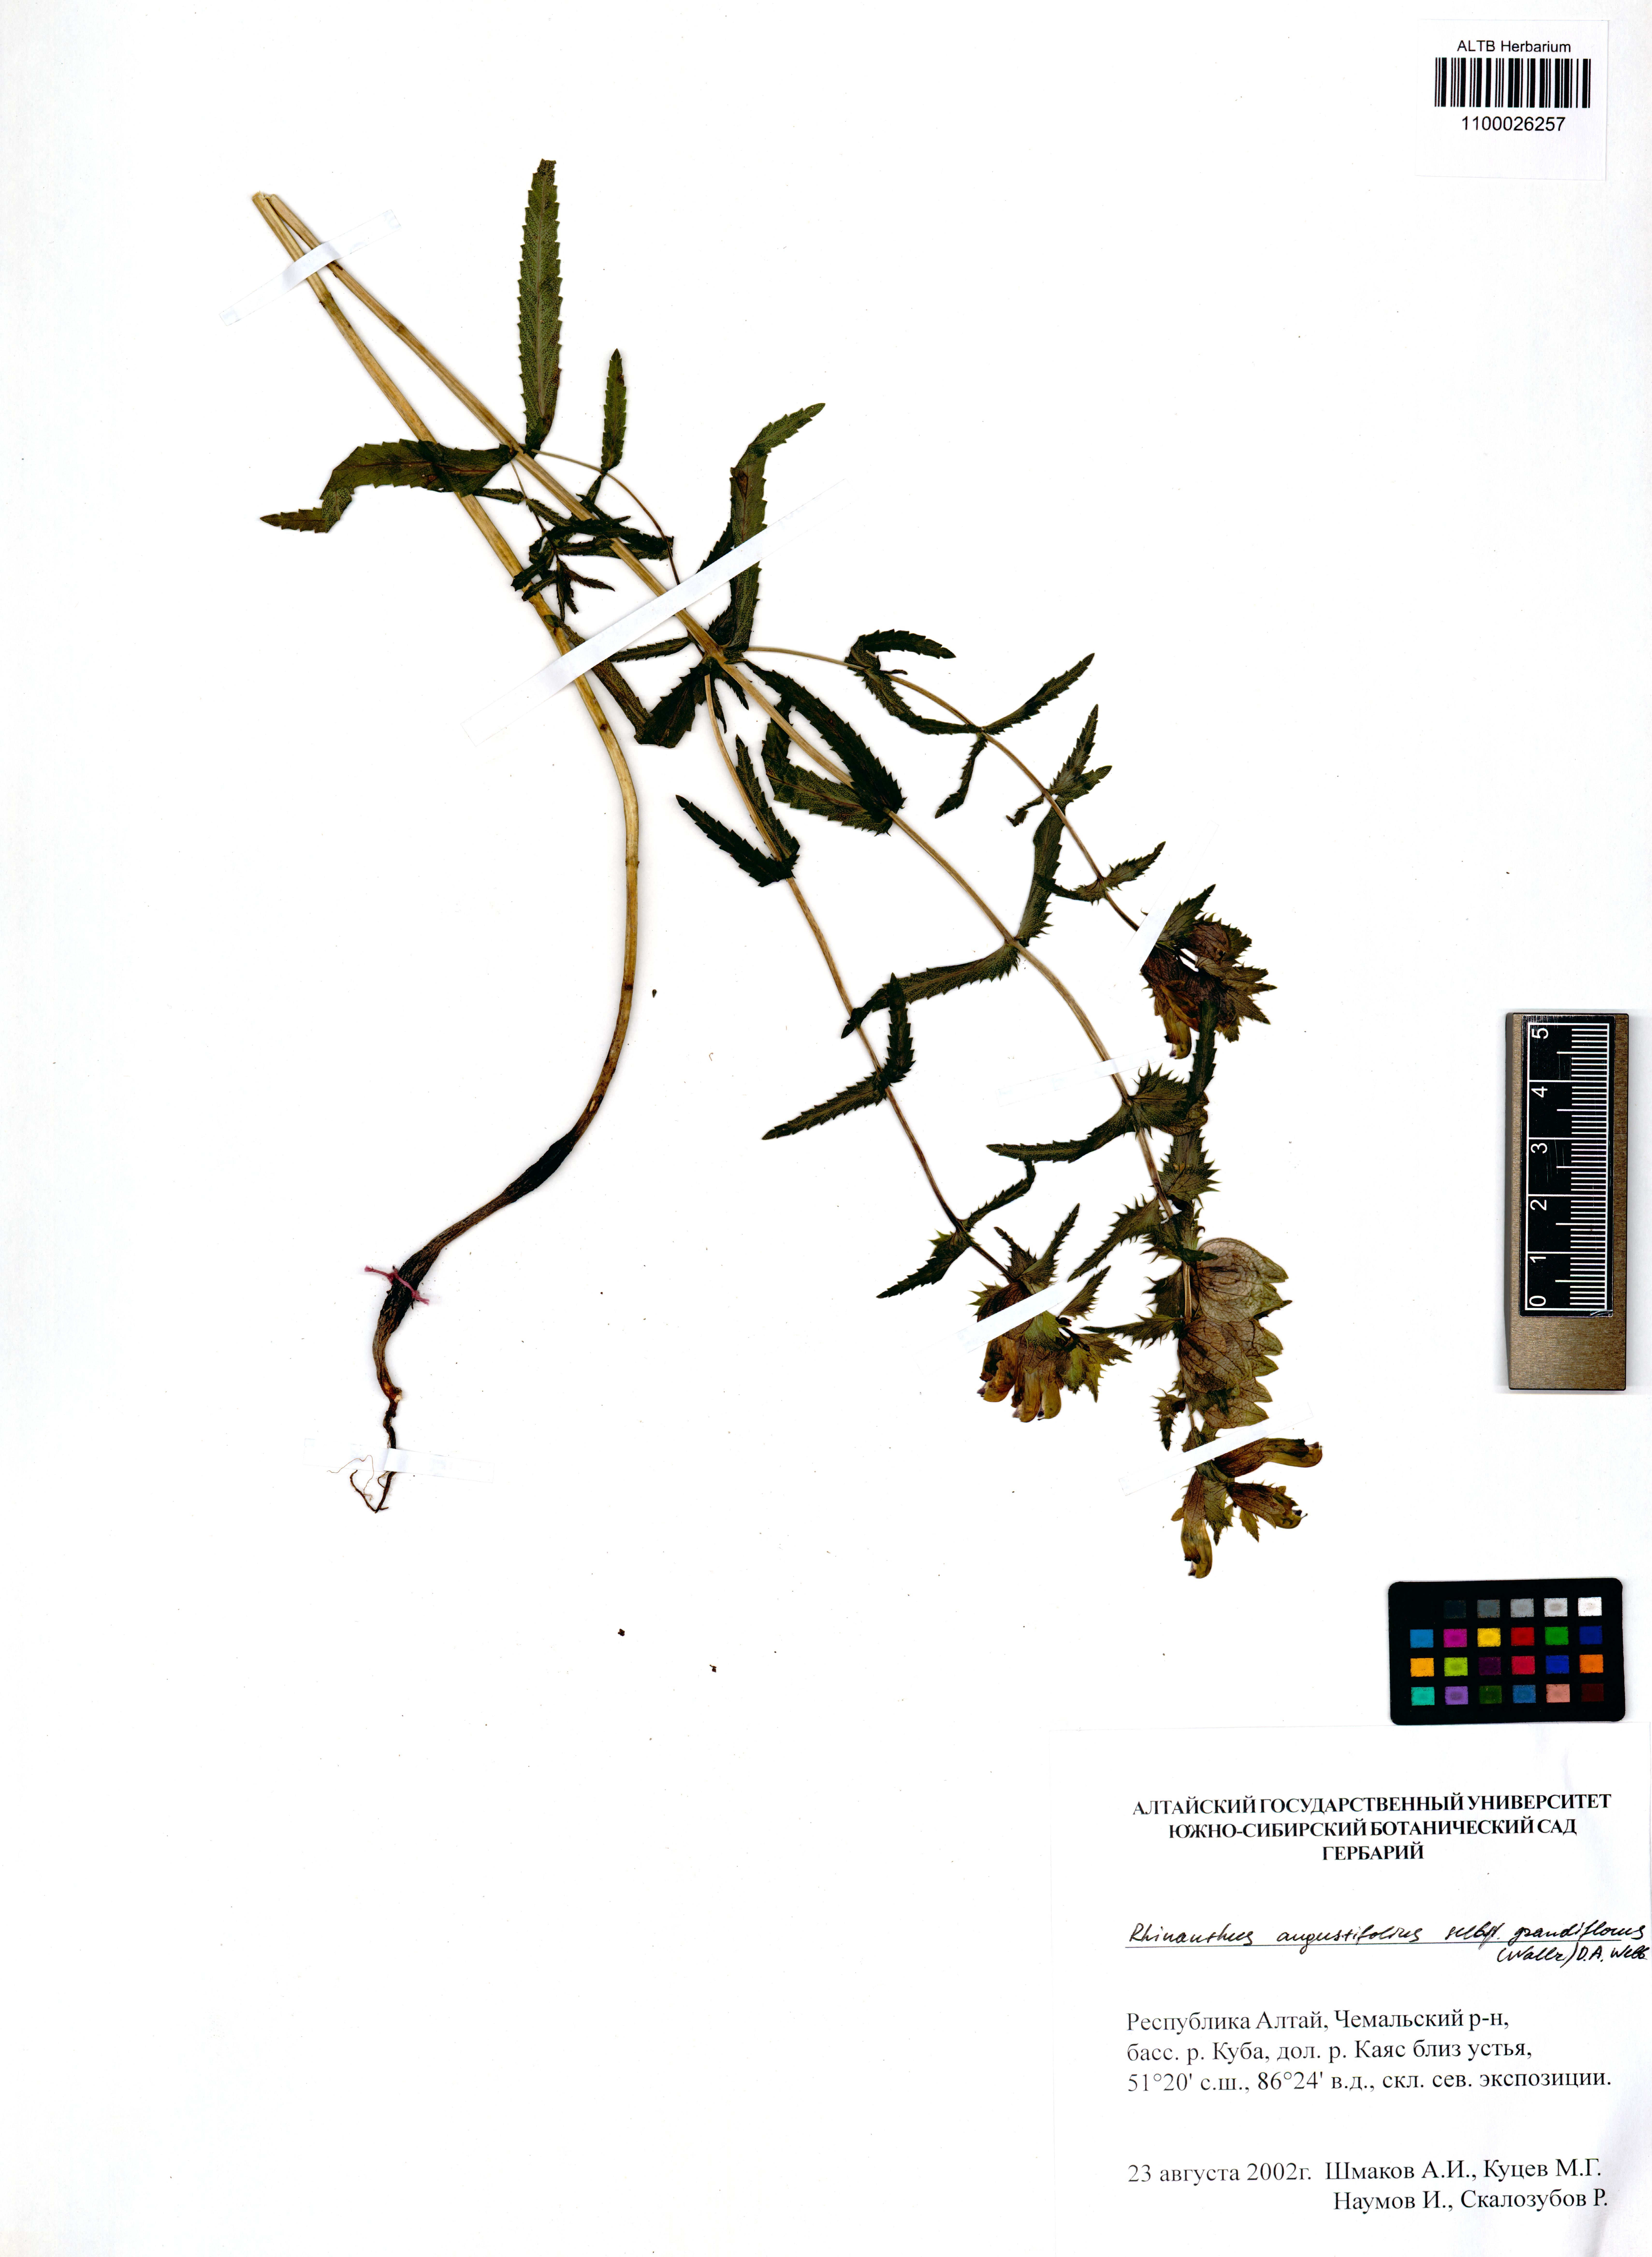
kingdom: Plantae
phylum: Tracheophyta
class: Magnoliopsida
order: Lamiales
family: Orobanchaceae
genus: Rhinanthus
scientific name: Rhinanthus serotinus
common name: Late-flowering yellow rattle
